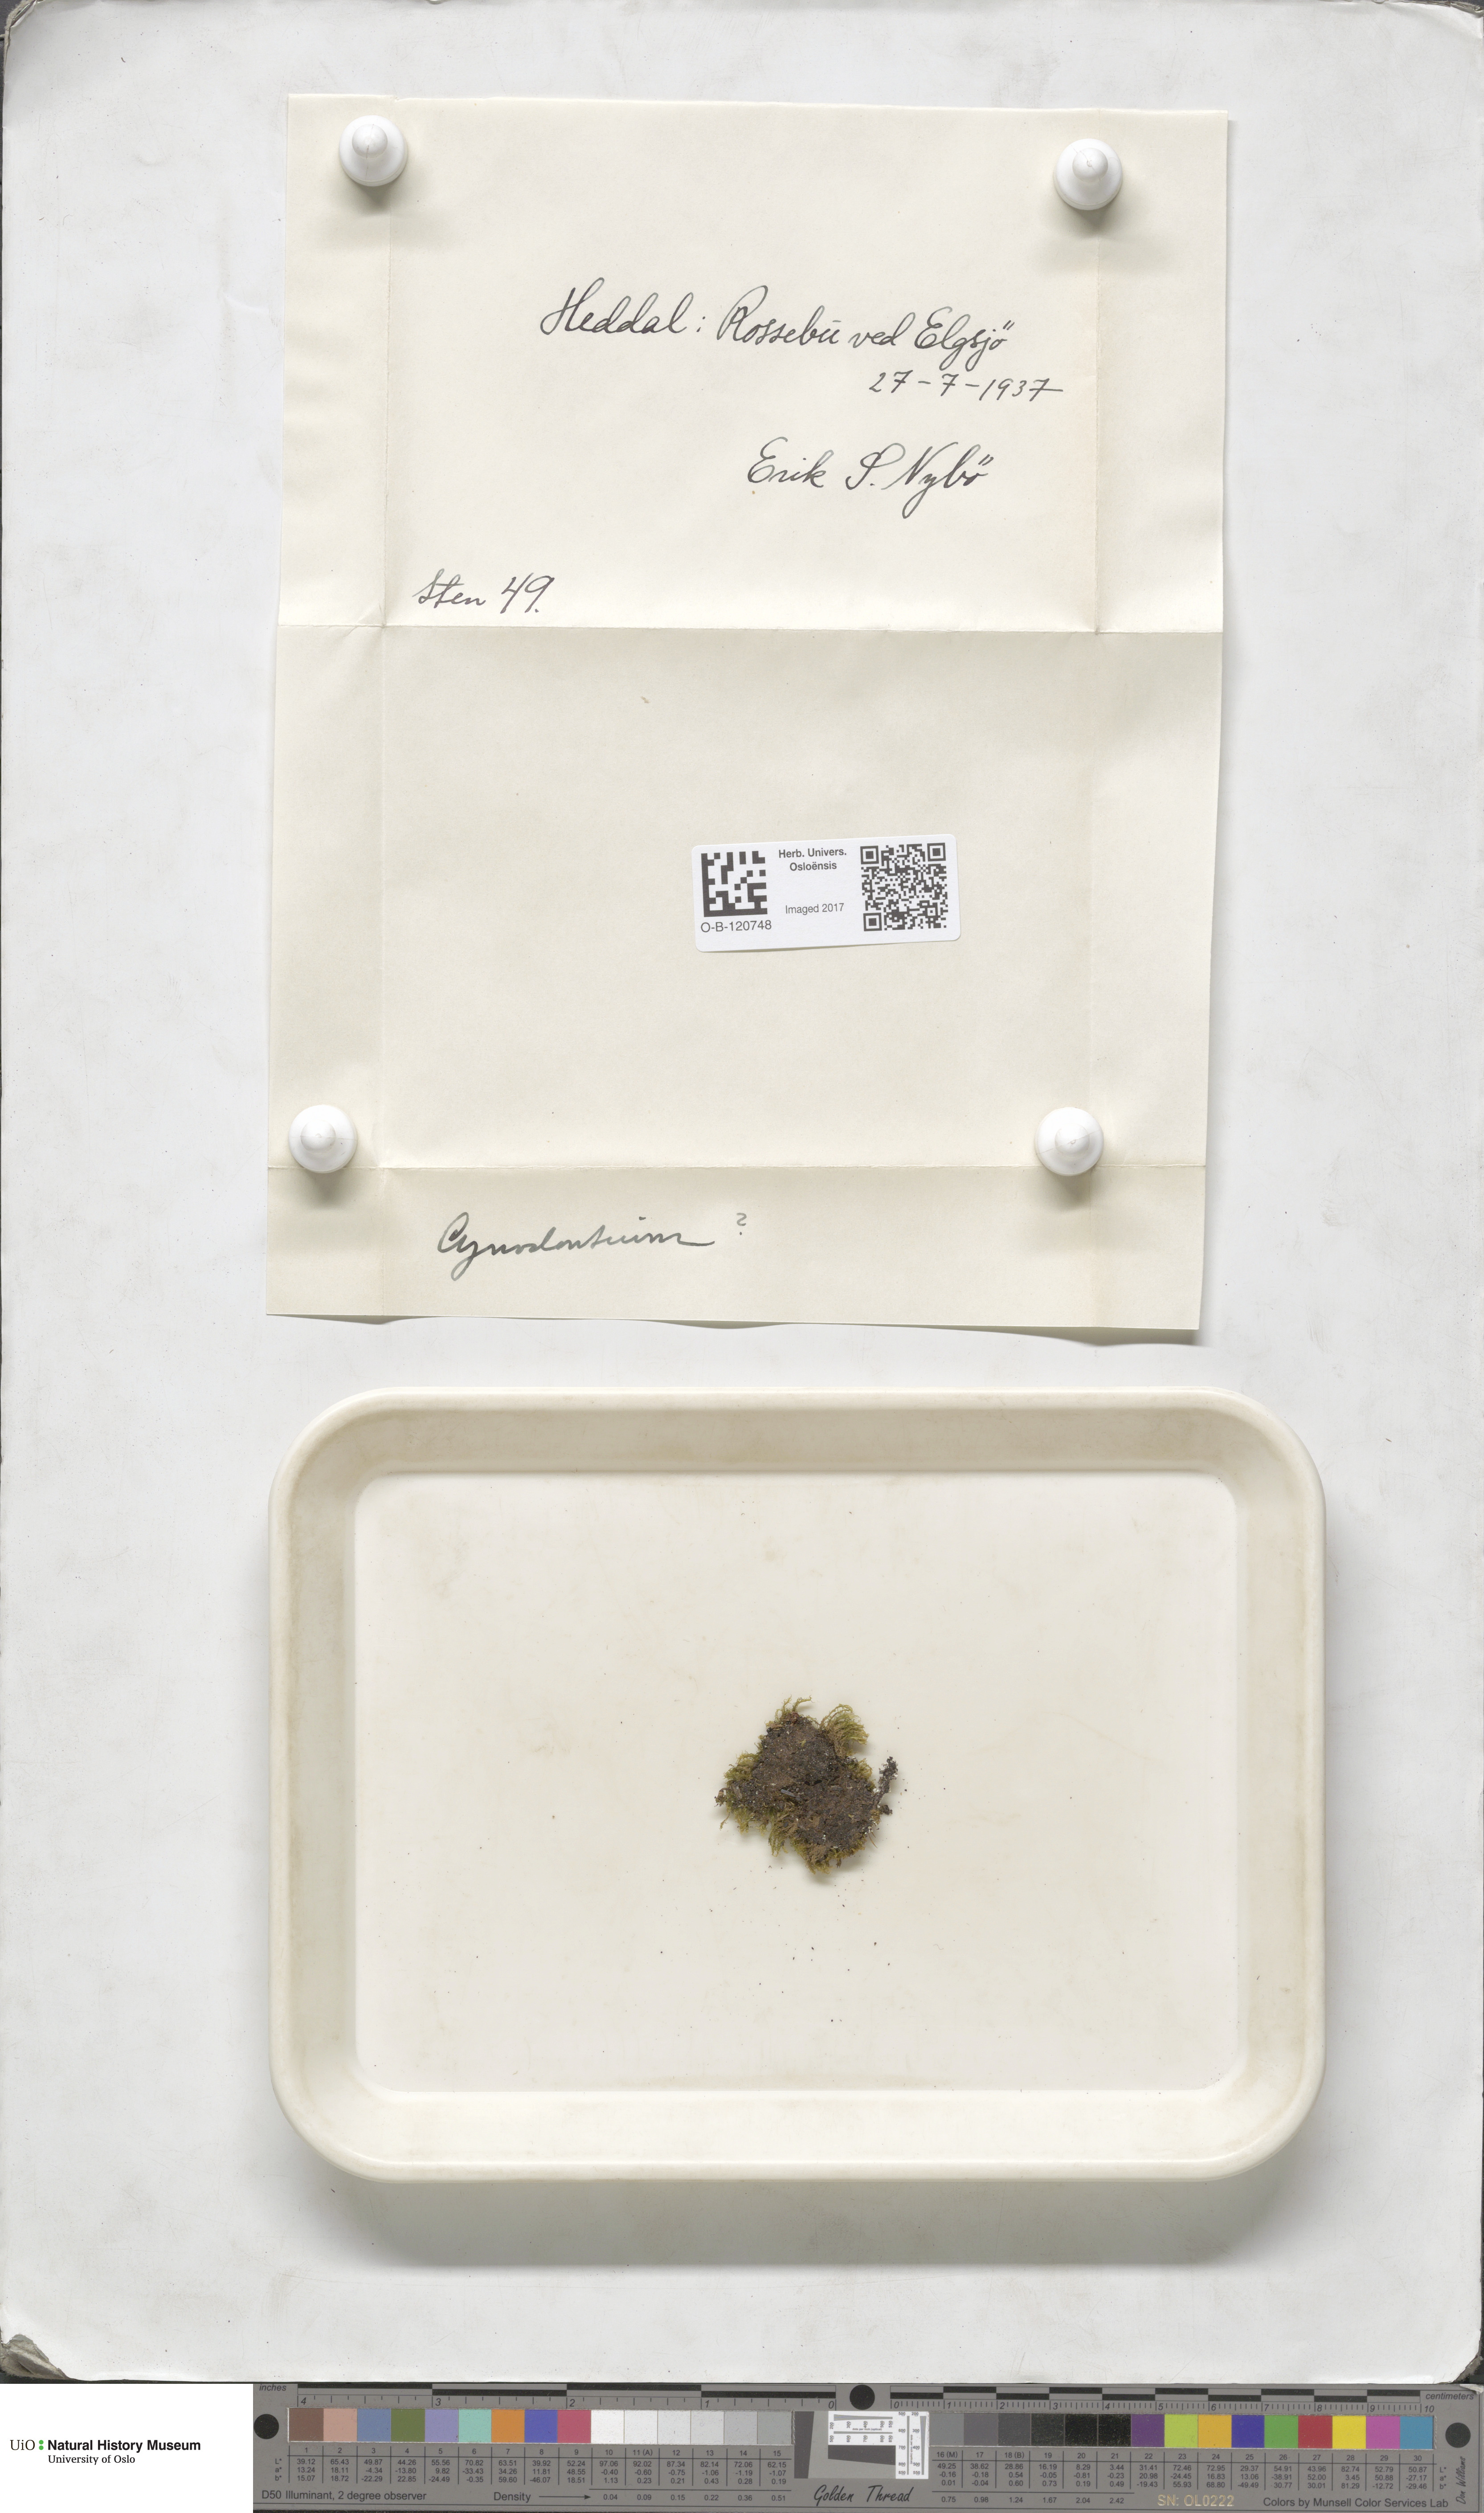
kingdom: Plantae
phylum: Bryophyta
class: Bryopsida
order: Dicranales
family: Rhabdoweisiaceae
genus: Cynodontium
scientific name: Cynodontium
